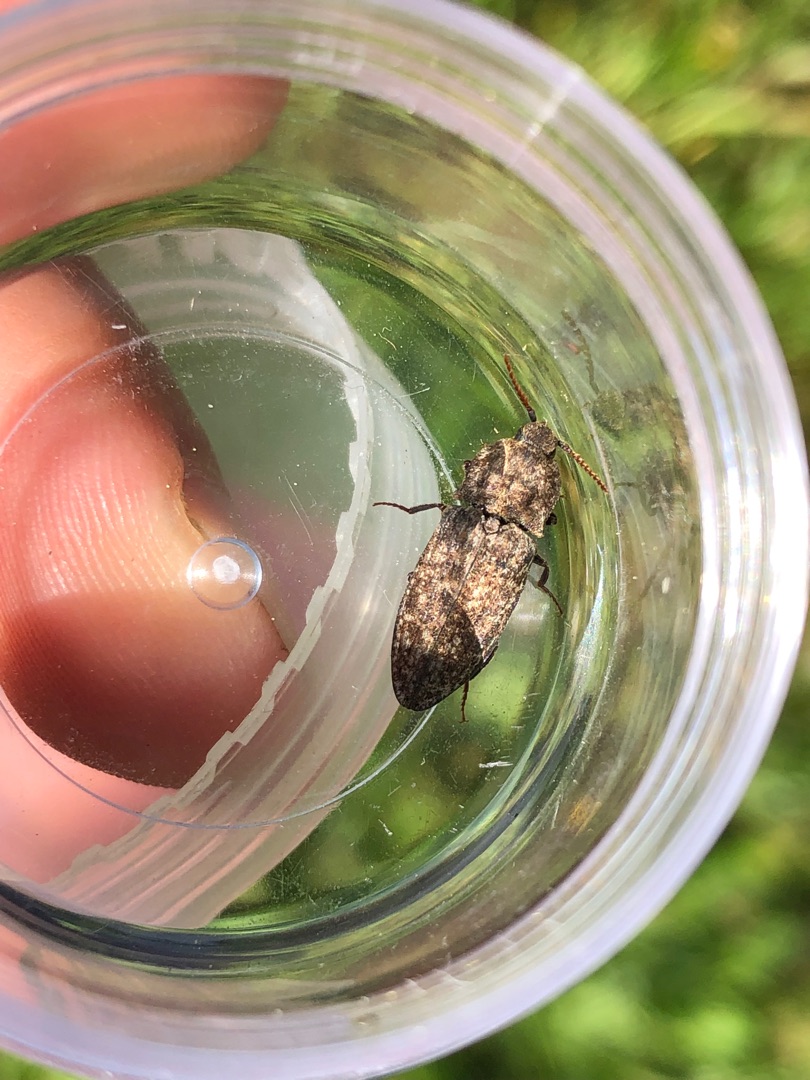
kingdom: Animalia
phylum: Arthropoda
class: Insecta
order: Coleoptera
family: Elateridae
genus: Agrypnus
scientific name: Agrypnus murinus
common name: Musegrå smælder
